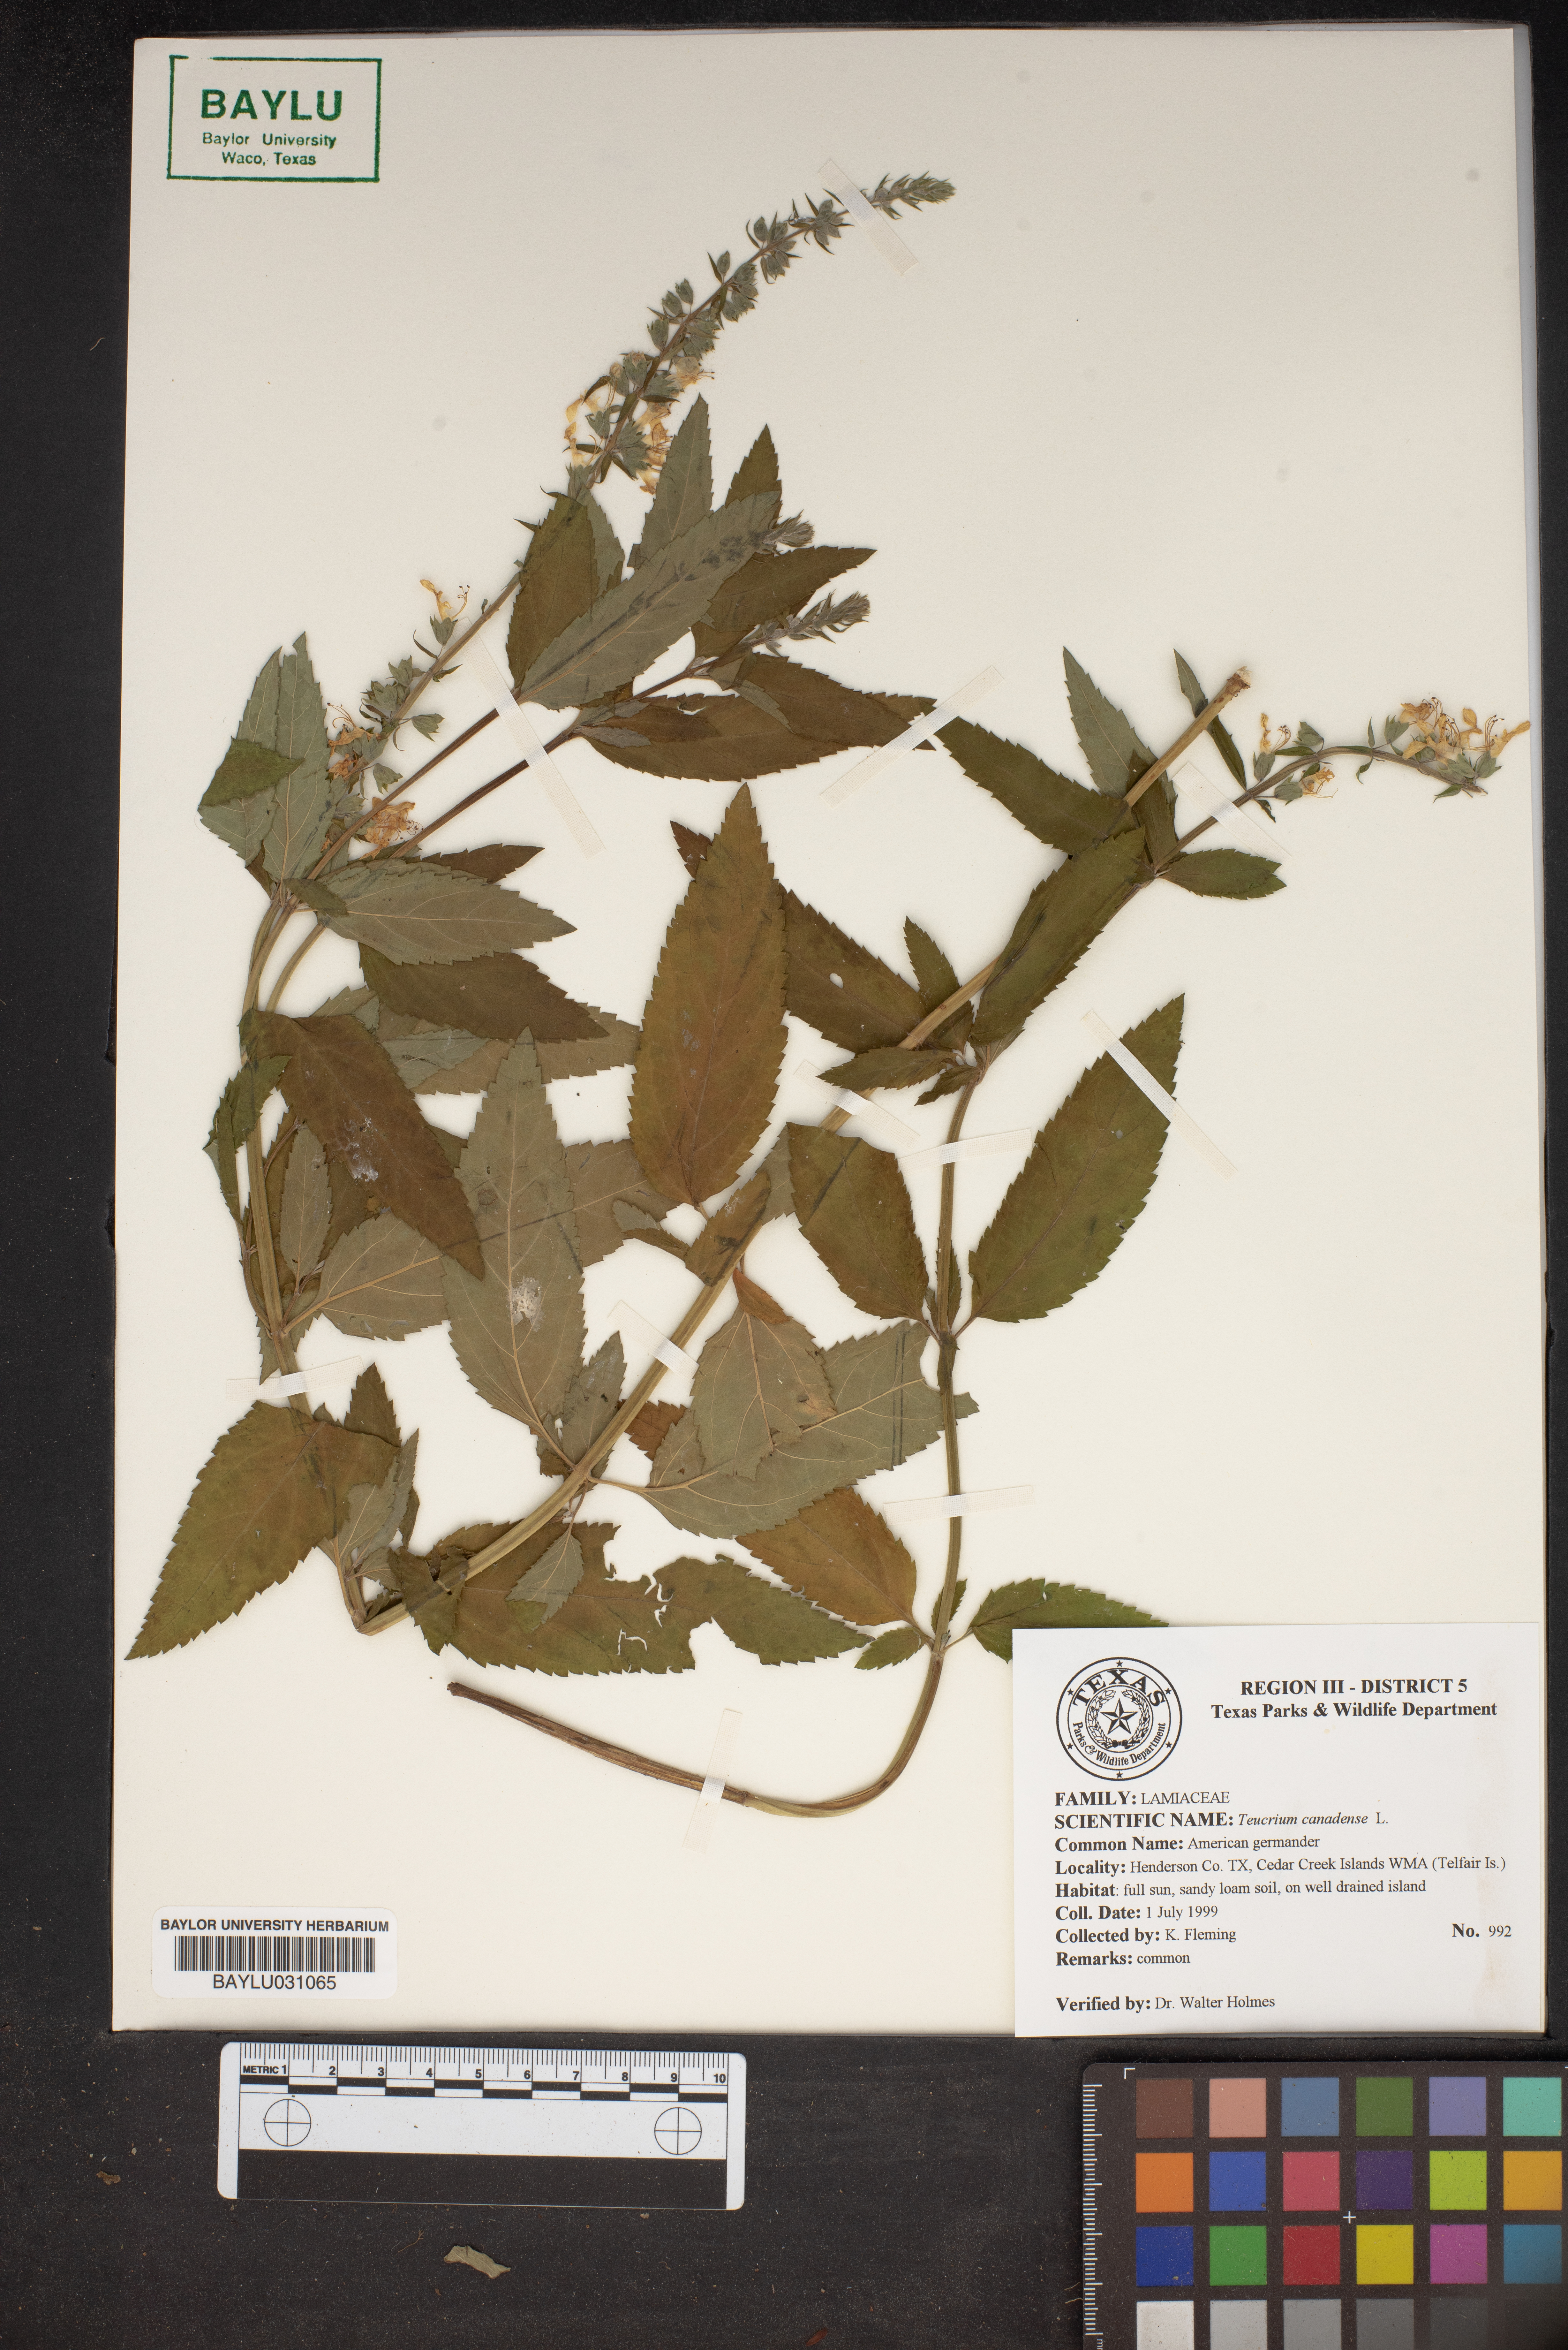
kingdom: Plantae
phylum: Tracheophyta
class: Magnoliopsida
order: Lamiales
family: Lamiaceae
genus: Teucrium
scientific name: Teucrium canadense
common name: American germander
